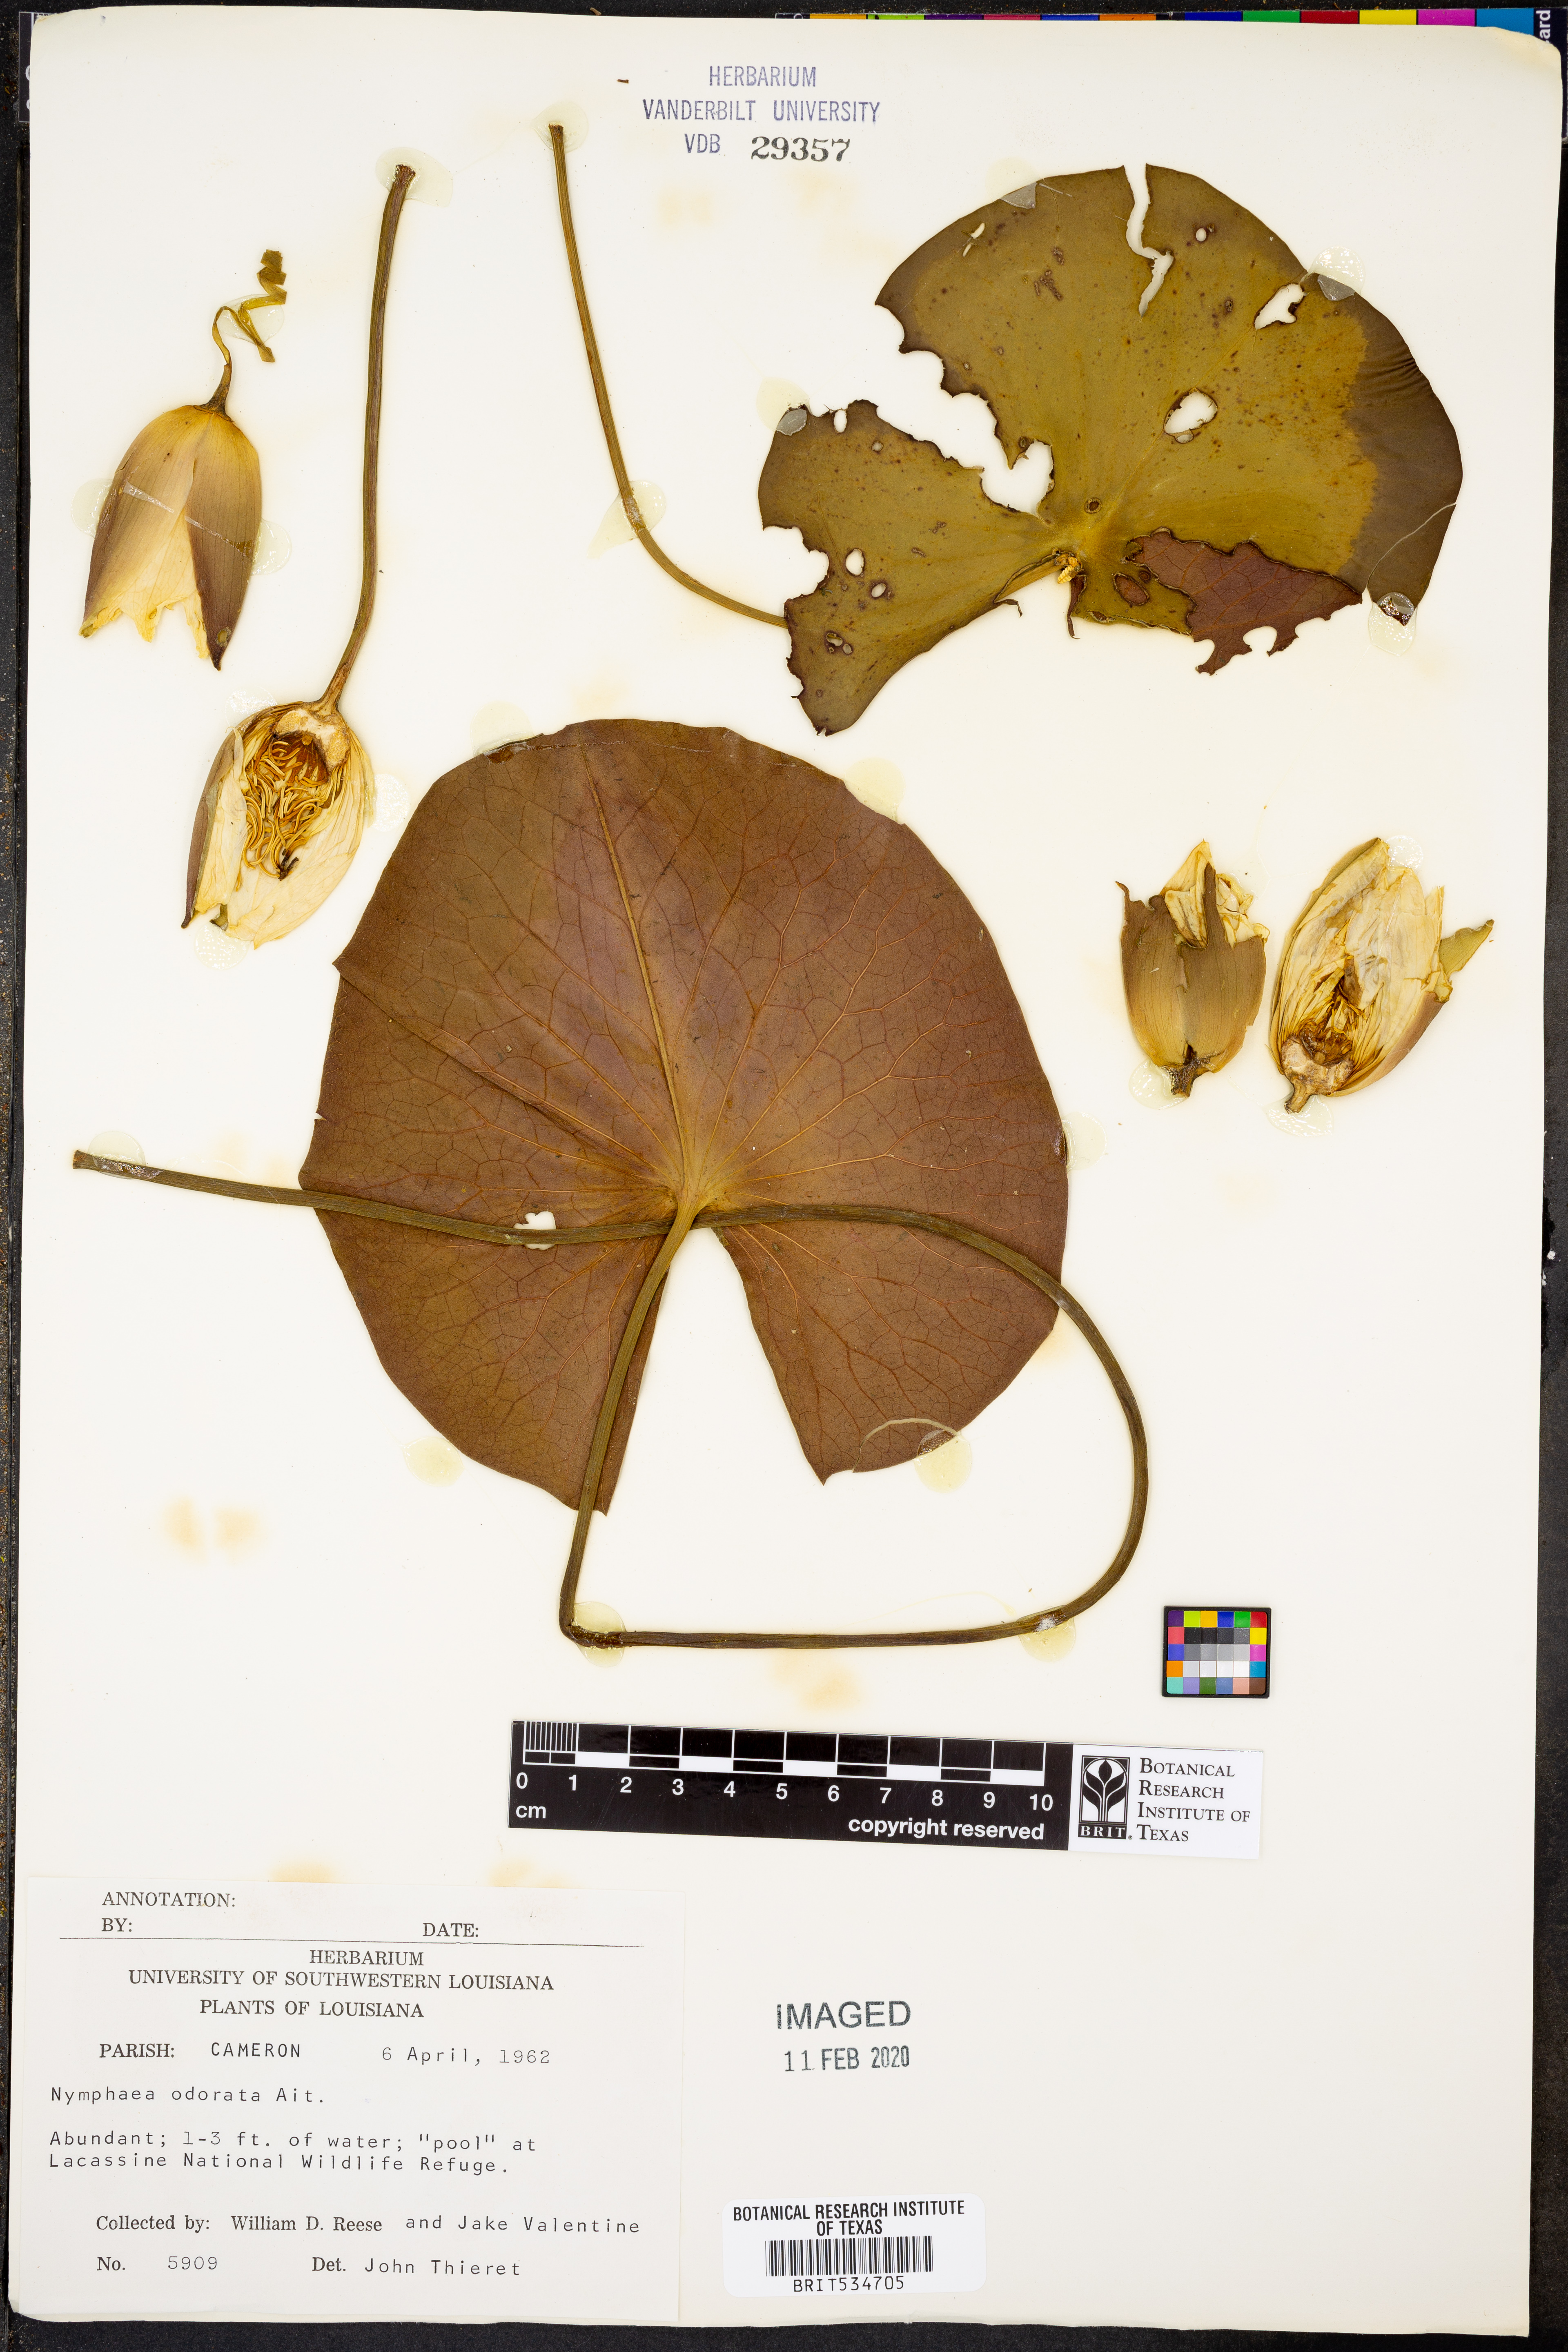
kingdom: Plantae
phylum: Tracheophyta
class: Magnoliopsida
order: Nymphaeales
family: Nymphaeaceae
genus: Nymphaea
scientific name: Nymphaea odorata
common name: Fragrant water-lily
